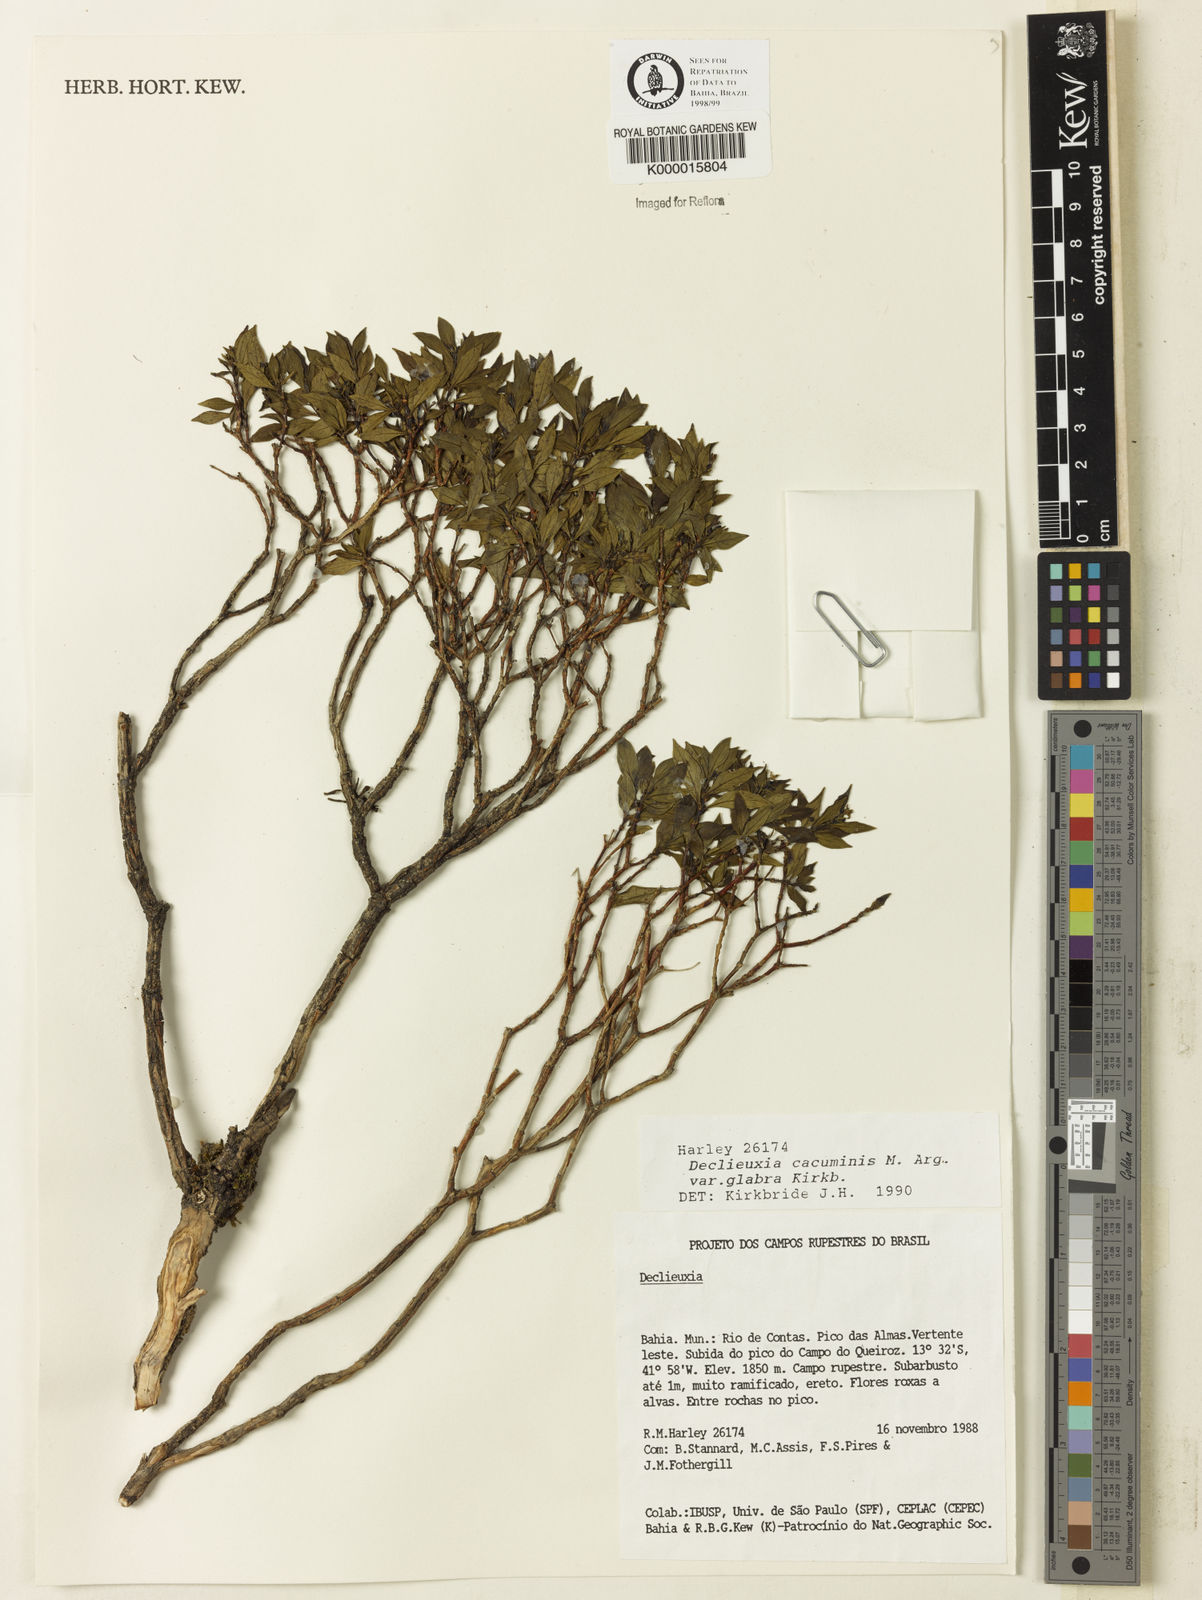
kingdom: Plantae
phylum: Tracheophyta
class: Magnoliopsida
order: Gentianales
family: Rubiaceae
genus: Declieuxia
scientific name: Declieuxia cacuminis
